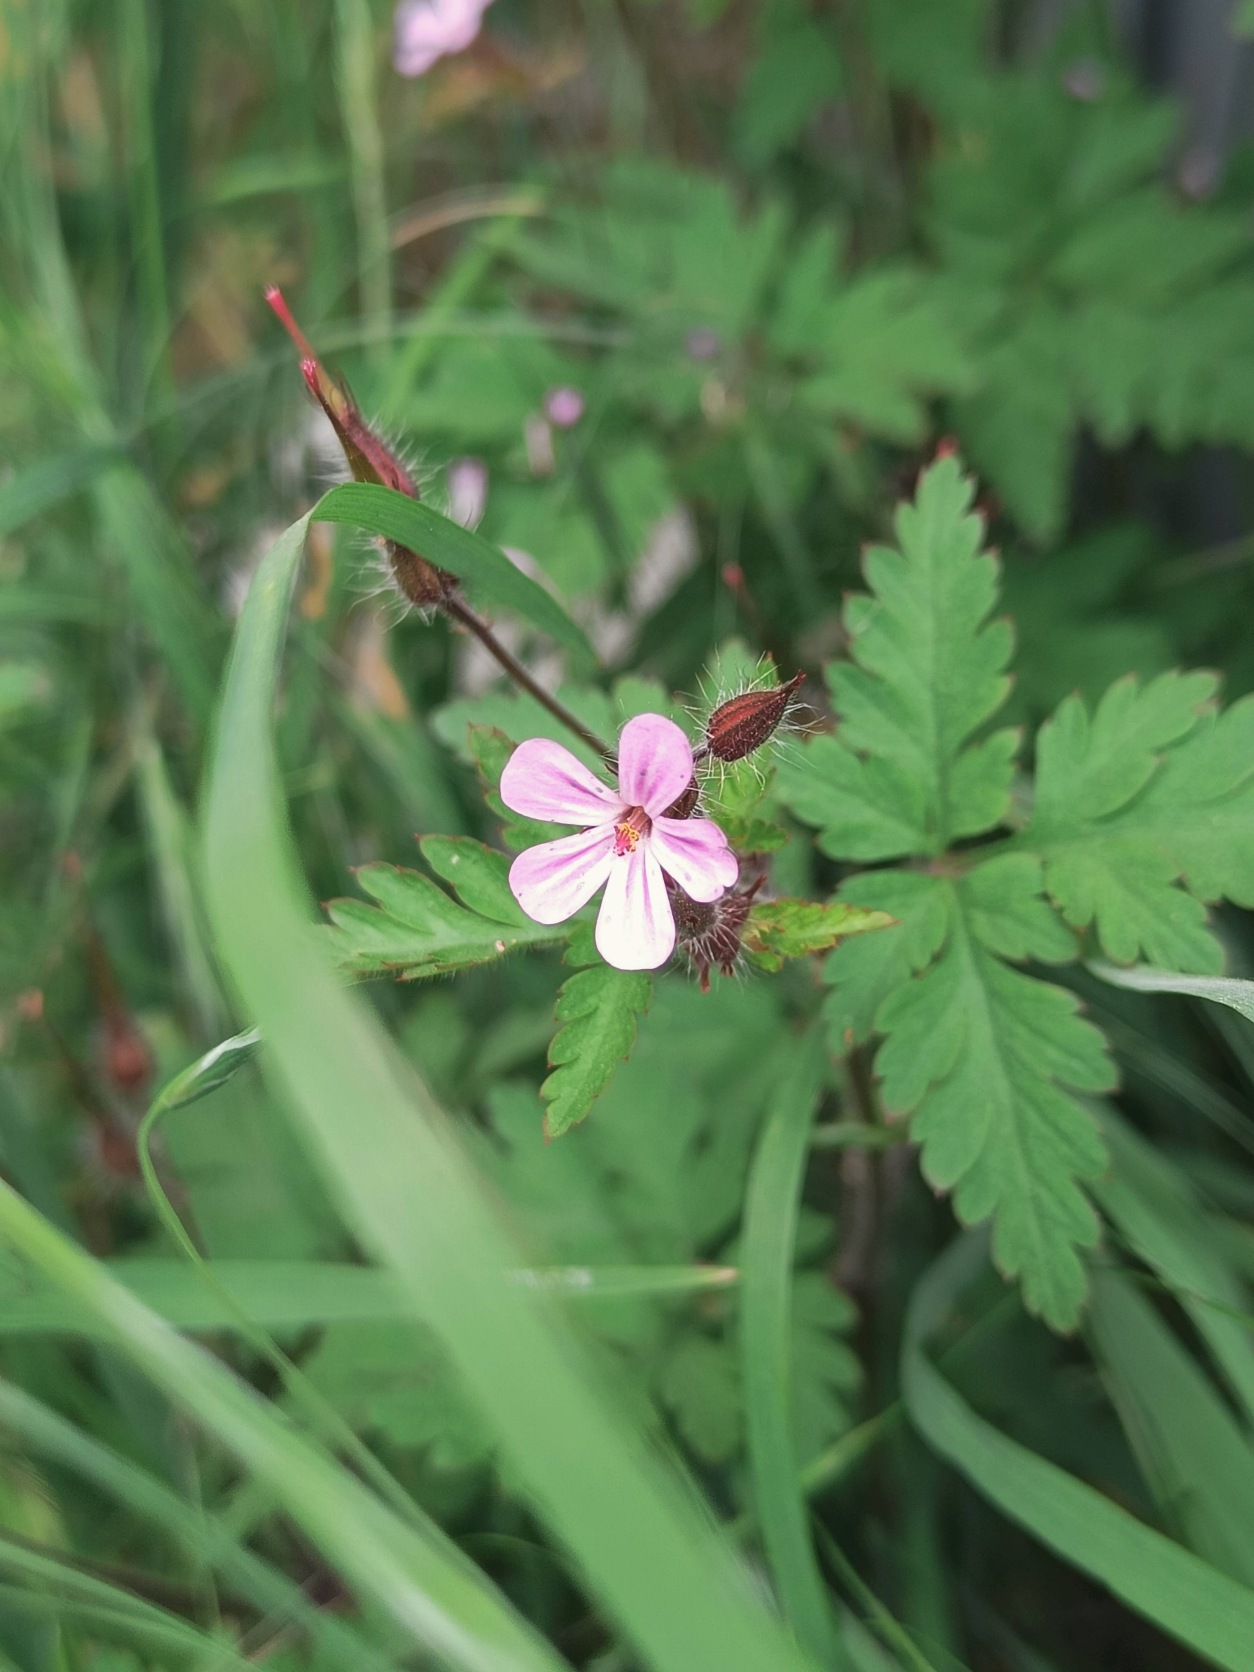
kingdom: Plantae
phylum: Tracheophyta
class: Magnoliopsida
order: Geraniales
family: Geraniaceae
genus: Geranium
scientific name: Geranium robertianum
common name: Stinkende storkenæb
